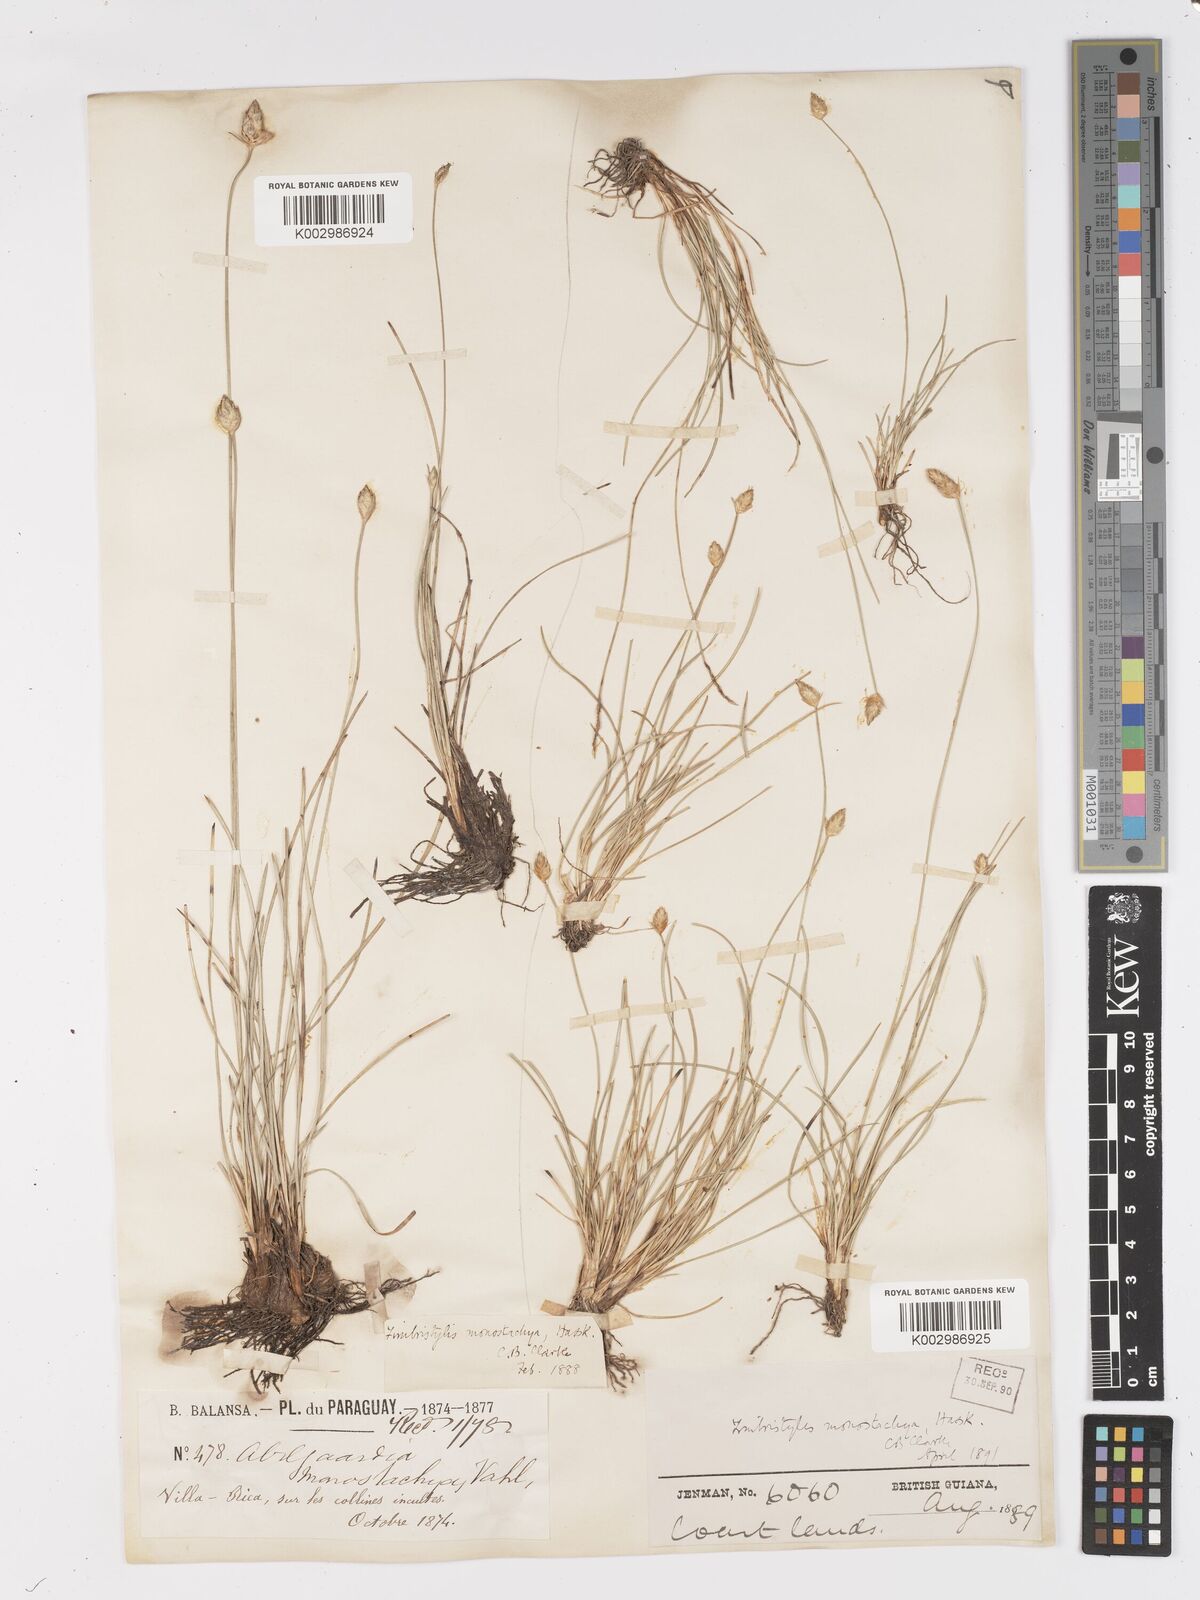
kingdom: Plantae
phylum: Tracheophyta
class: Liliopsida
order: Poales
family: Cyperaceae
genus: Abildgaardia
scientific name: Abildgaardia ovata
